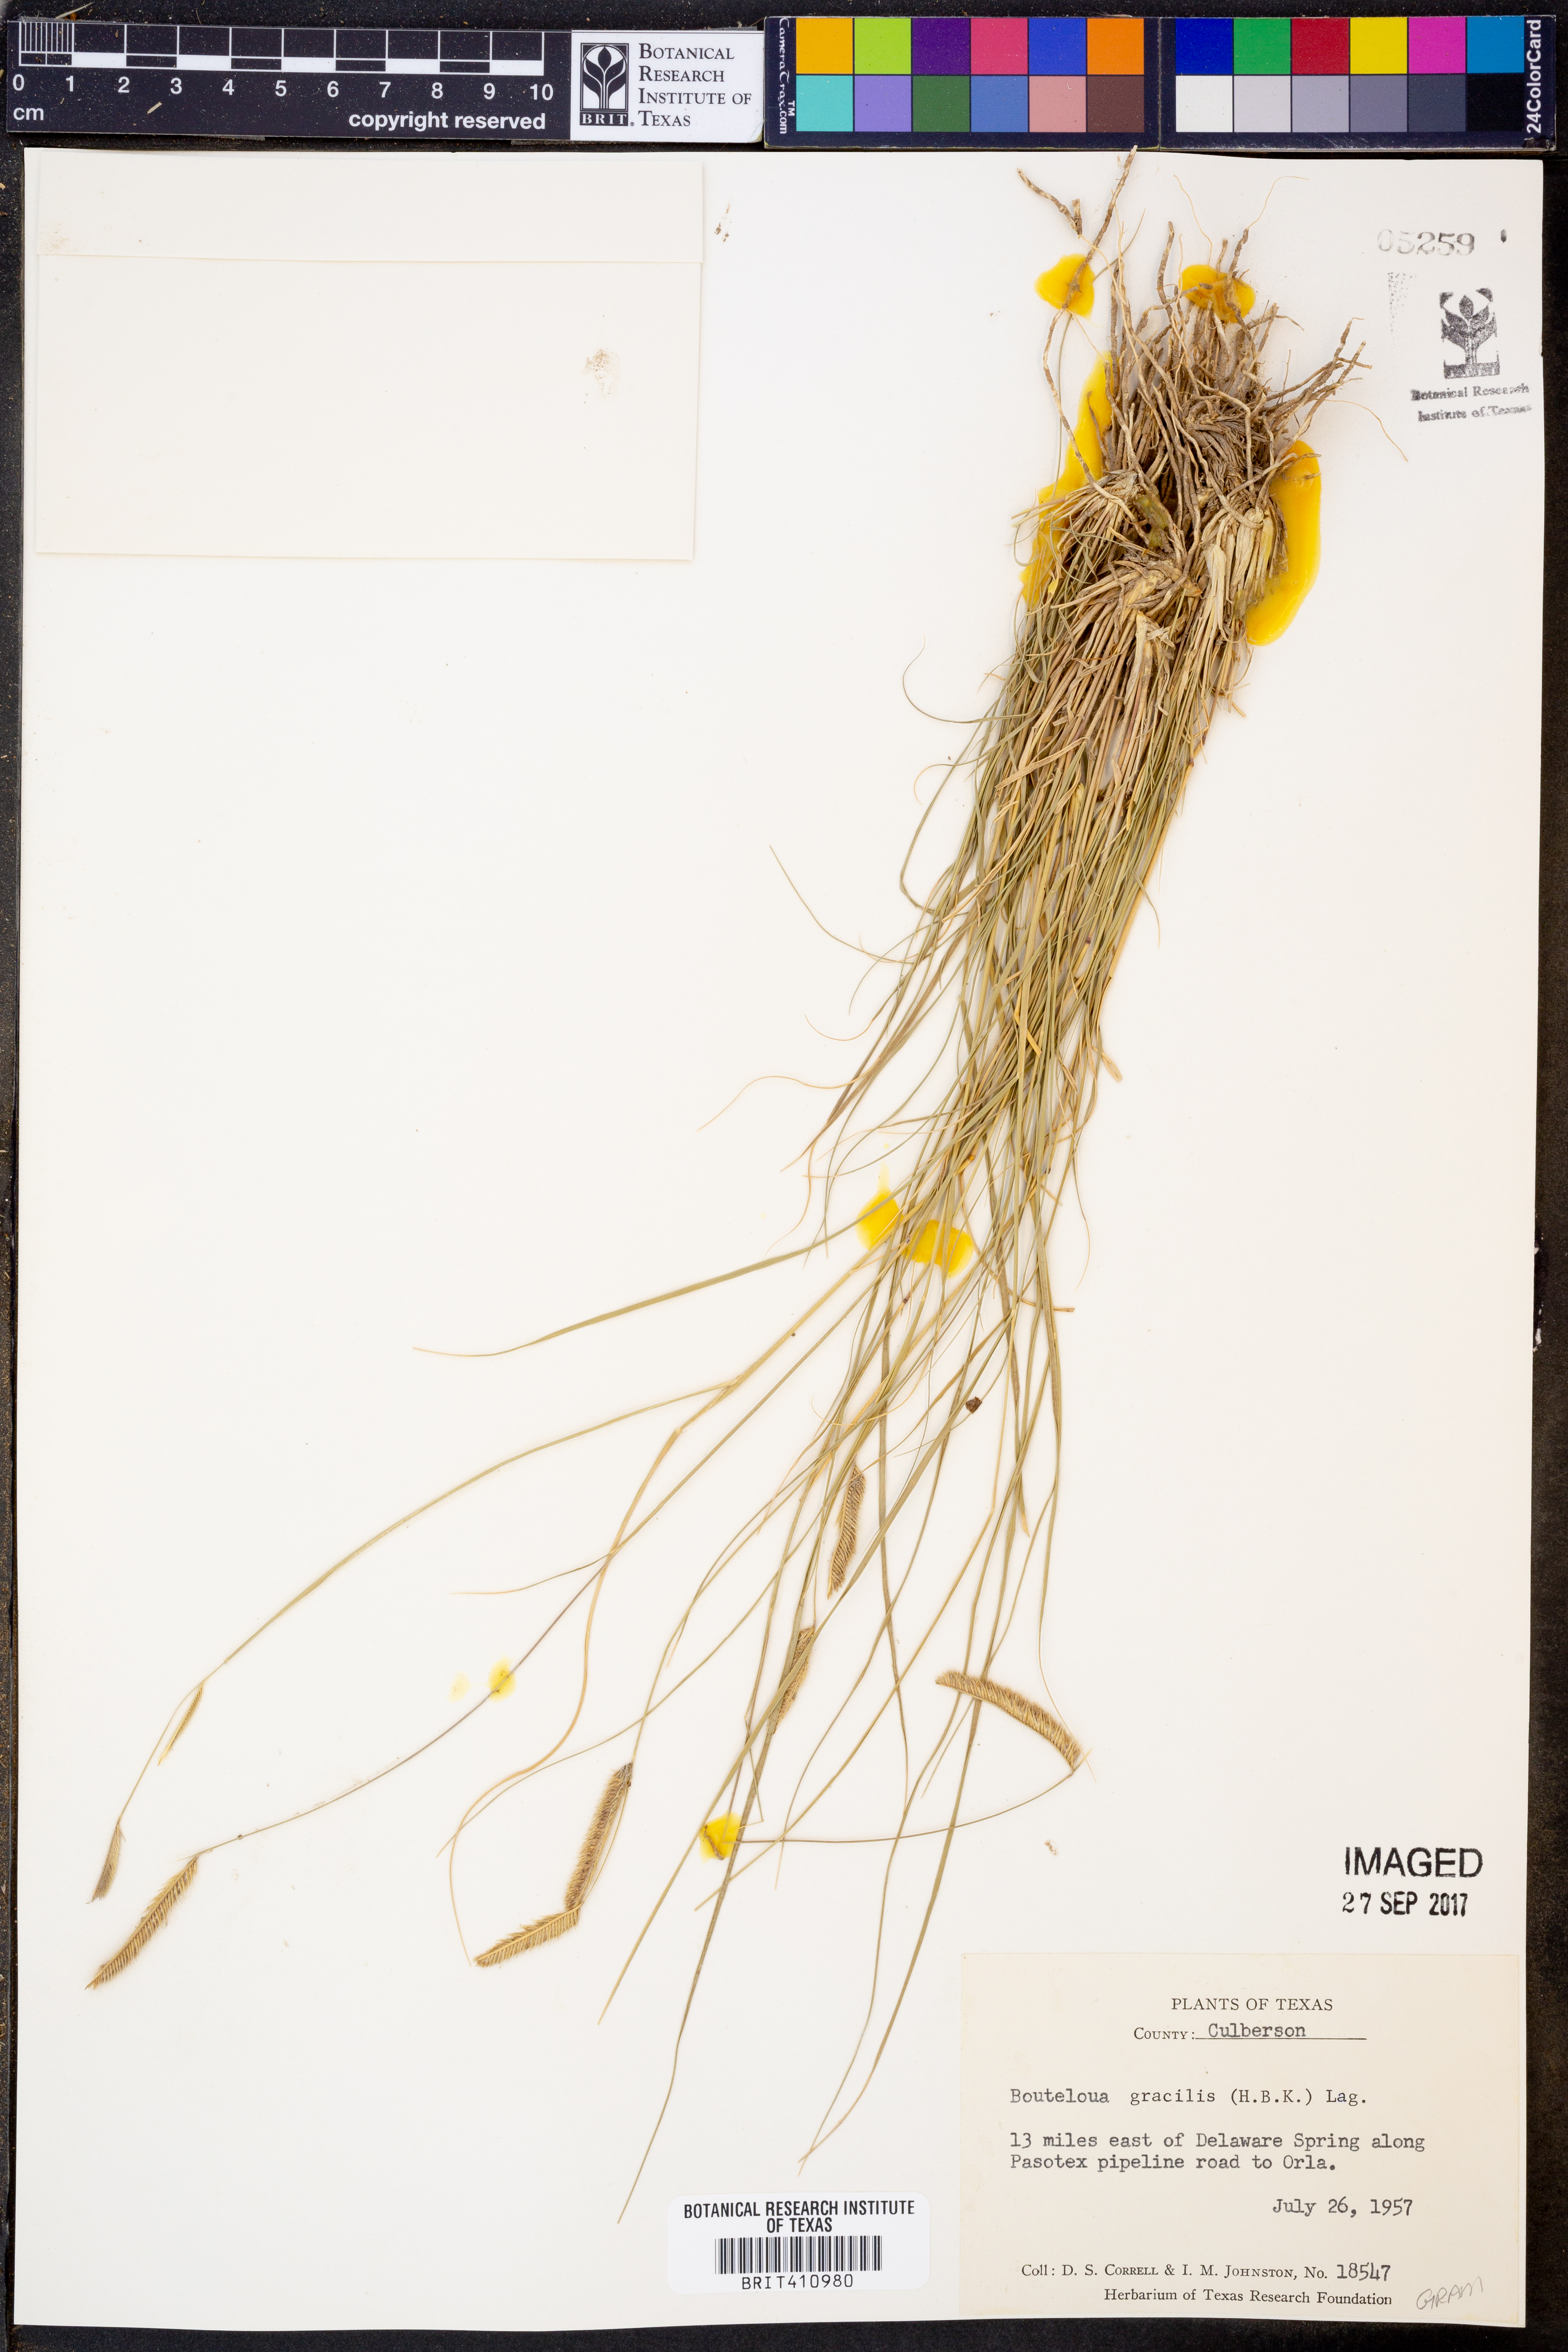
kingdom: Plantae
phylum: Tracheophyta
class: Liliopsida
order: Poales
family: Poaceae
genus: Bouteloua
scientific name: Bouteloua gracilis
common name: Blue grama
